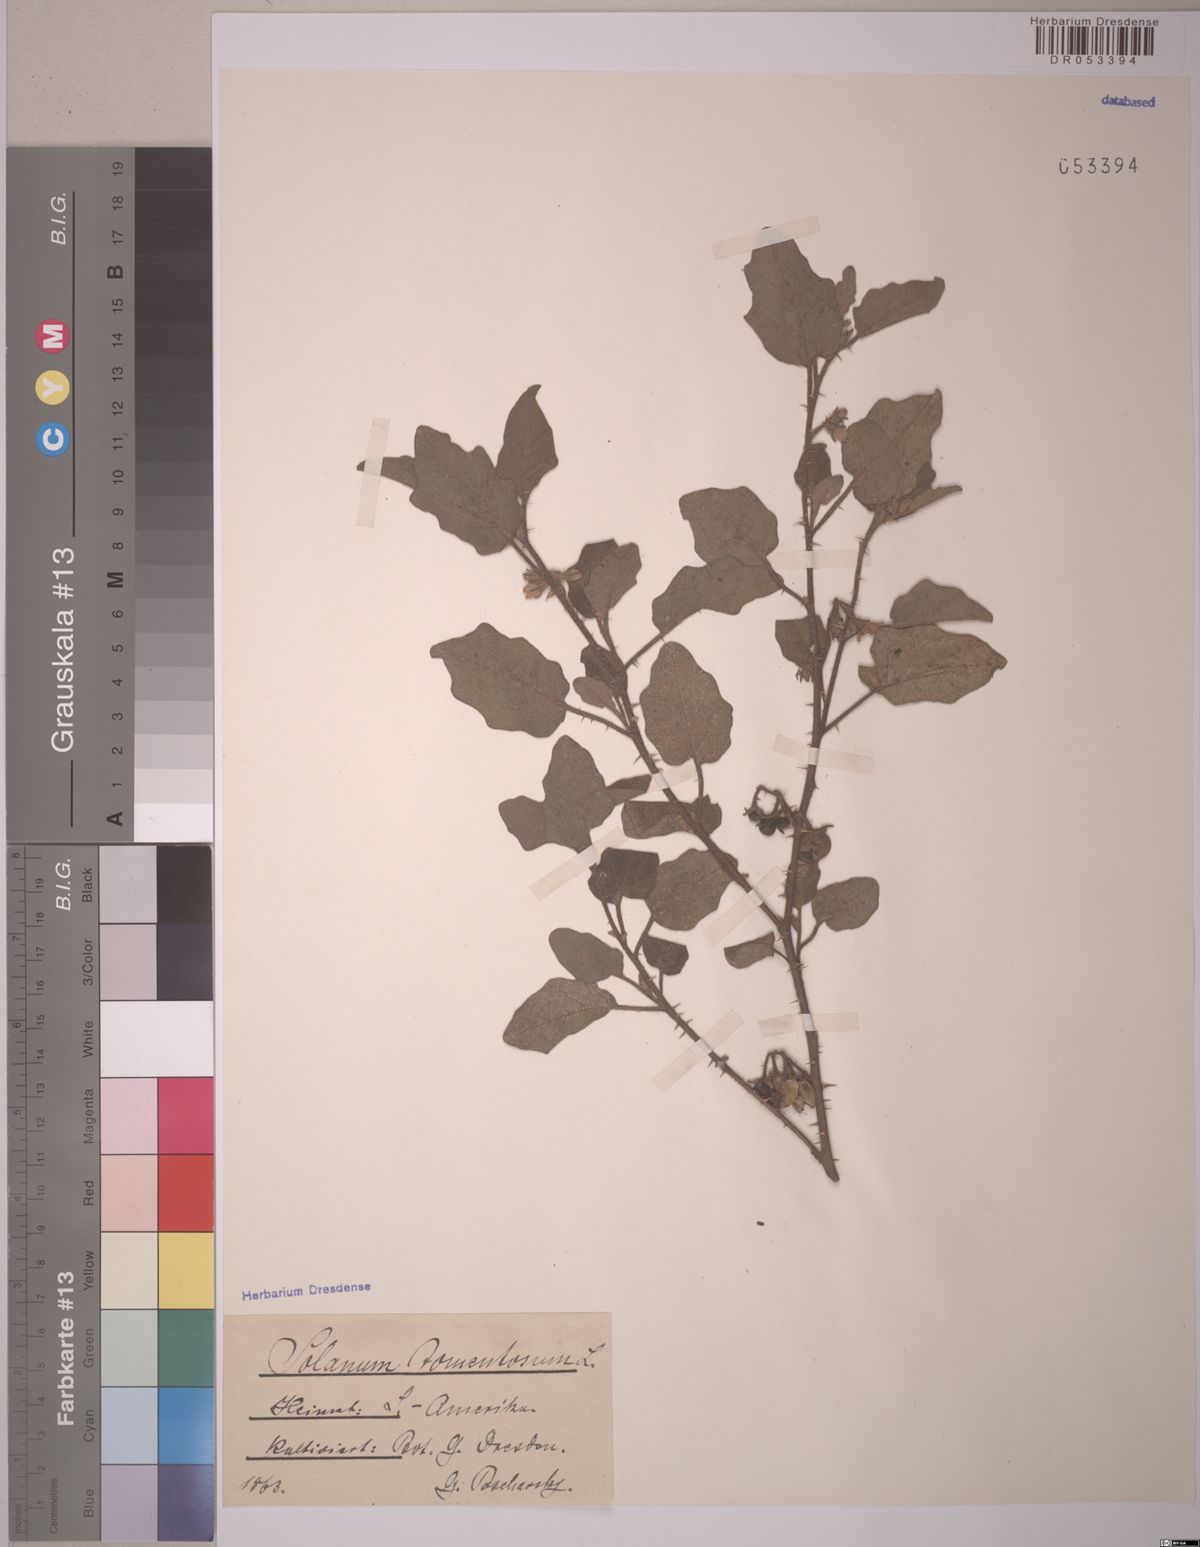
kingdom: Plantae
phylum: Tracheophyta
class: Magnoliopsida
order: Solanales
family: Solanaceae
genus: Solanum
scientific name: Solanum tomentosum
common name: Wild aubergine
